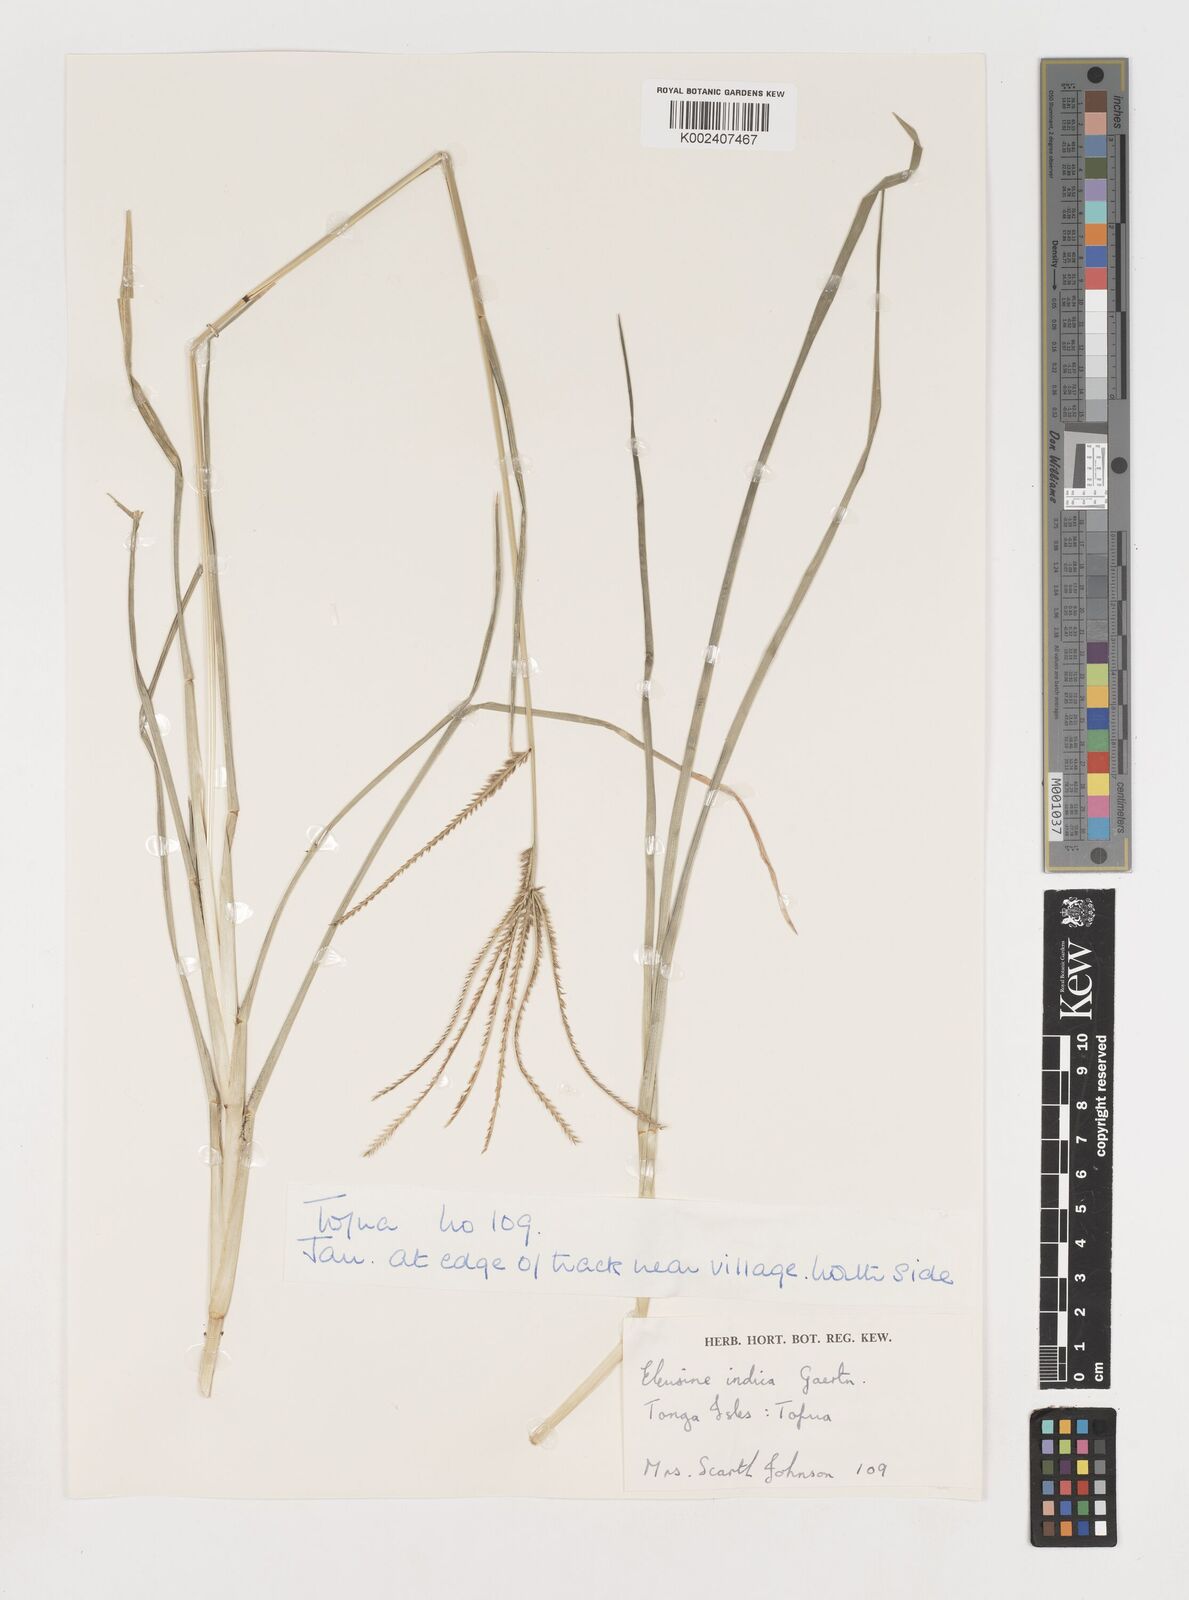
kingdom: Plantae
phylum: Tracheophyta
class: Liliopsida
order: Poales
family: Poaceae
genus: Eleusine
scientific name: Eleusine indica
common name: Yard-grass
